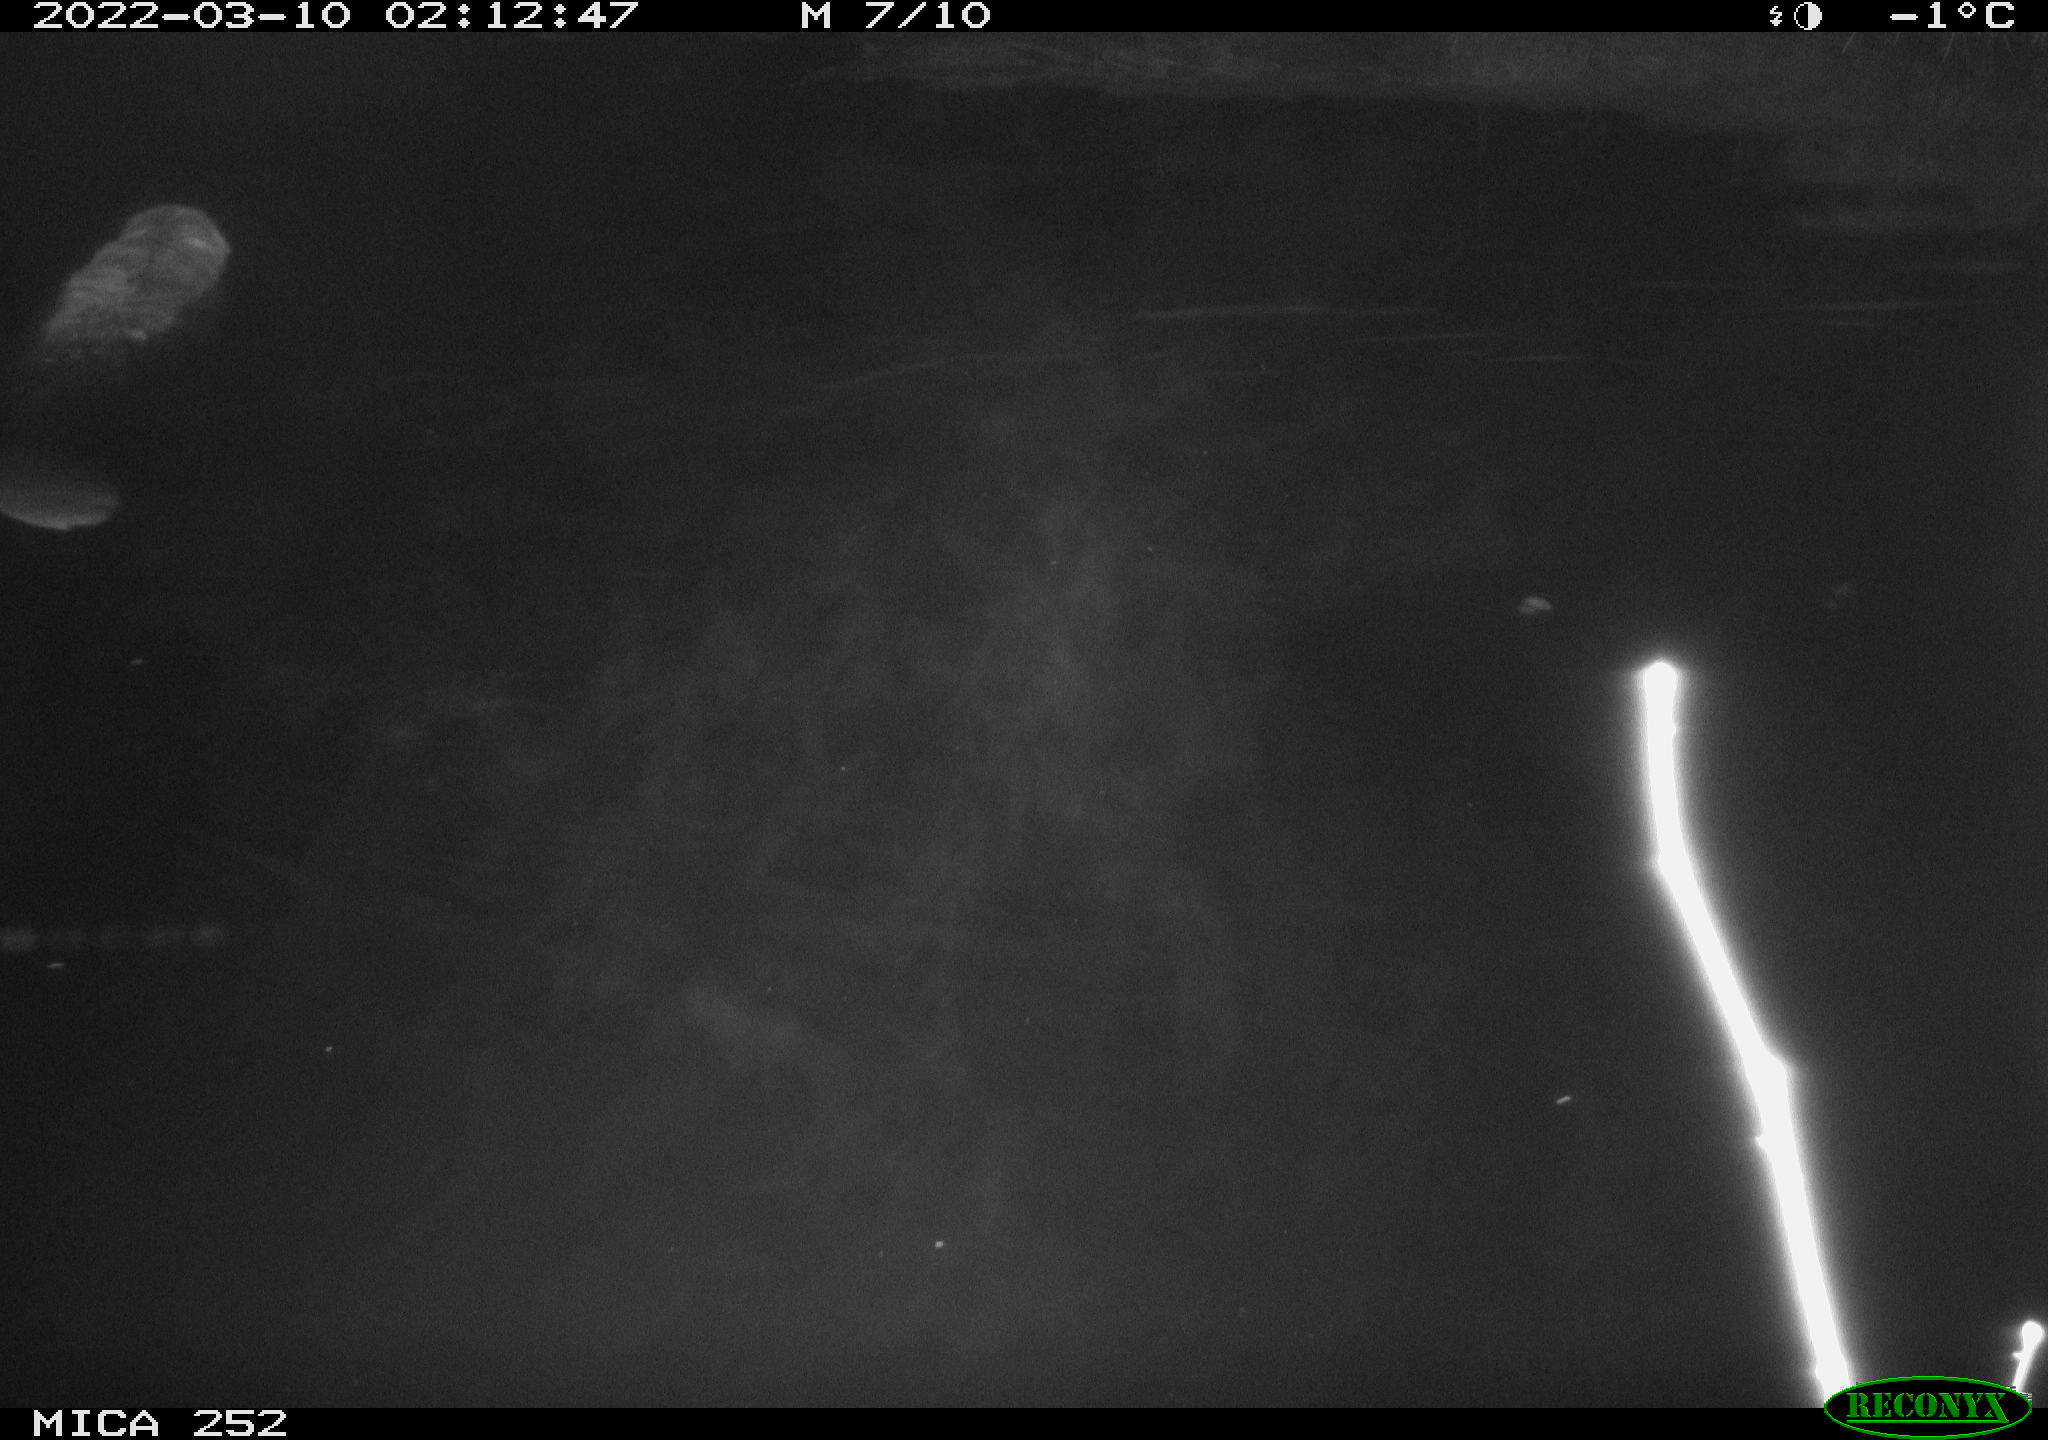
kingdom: Animalia
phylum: Chordata
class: Mammalia
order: Rodentia
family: Castoridae
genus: Castor
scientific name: Castor fiber
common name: Eurasian beaver
